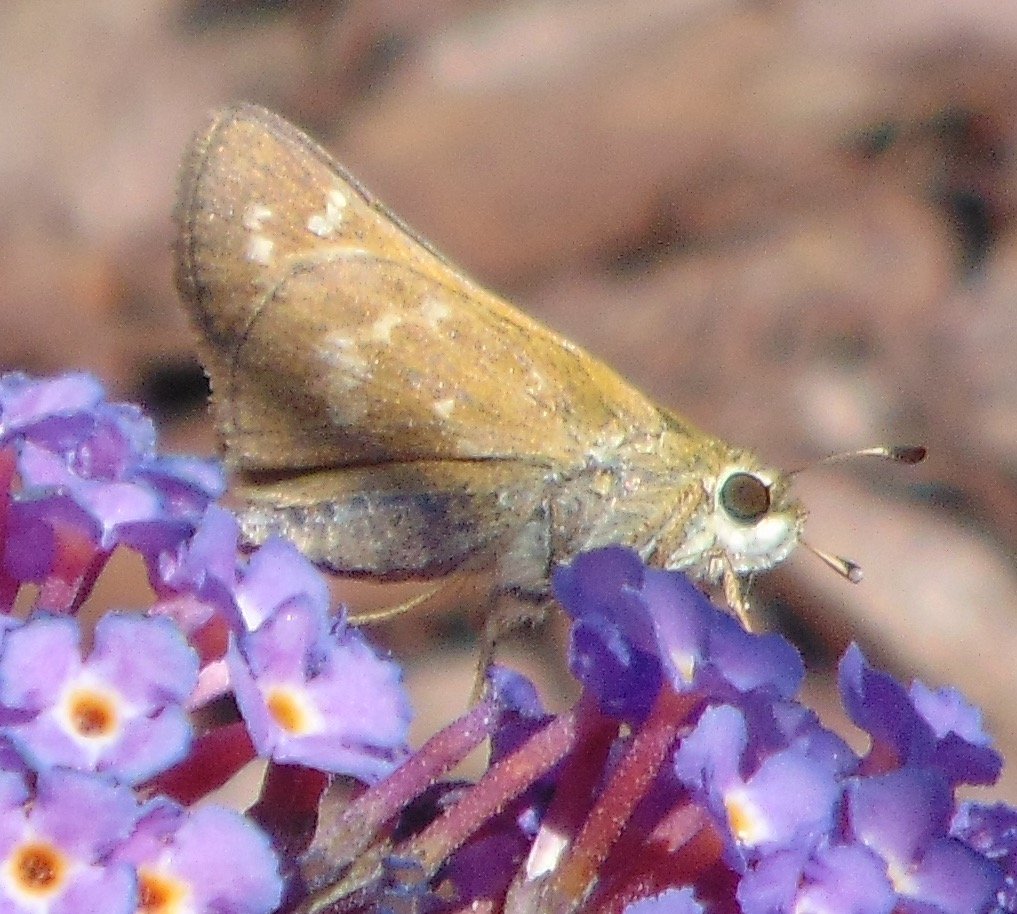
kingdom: Animalia
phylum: Arthropoda
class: Insecta
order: Lepidoptera
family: Hesperiidae
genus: Atalopedes
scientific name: Atalopedes campestris
